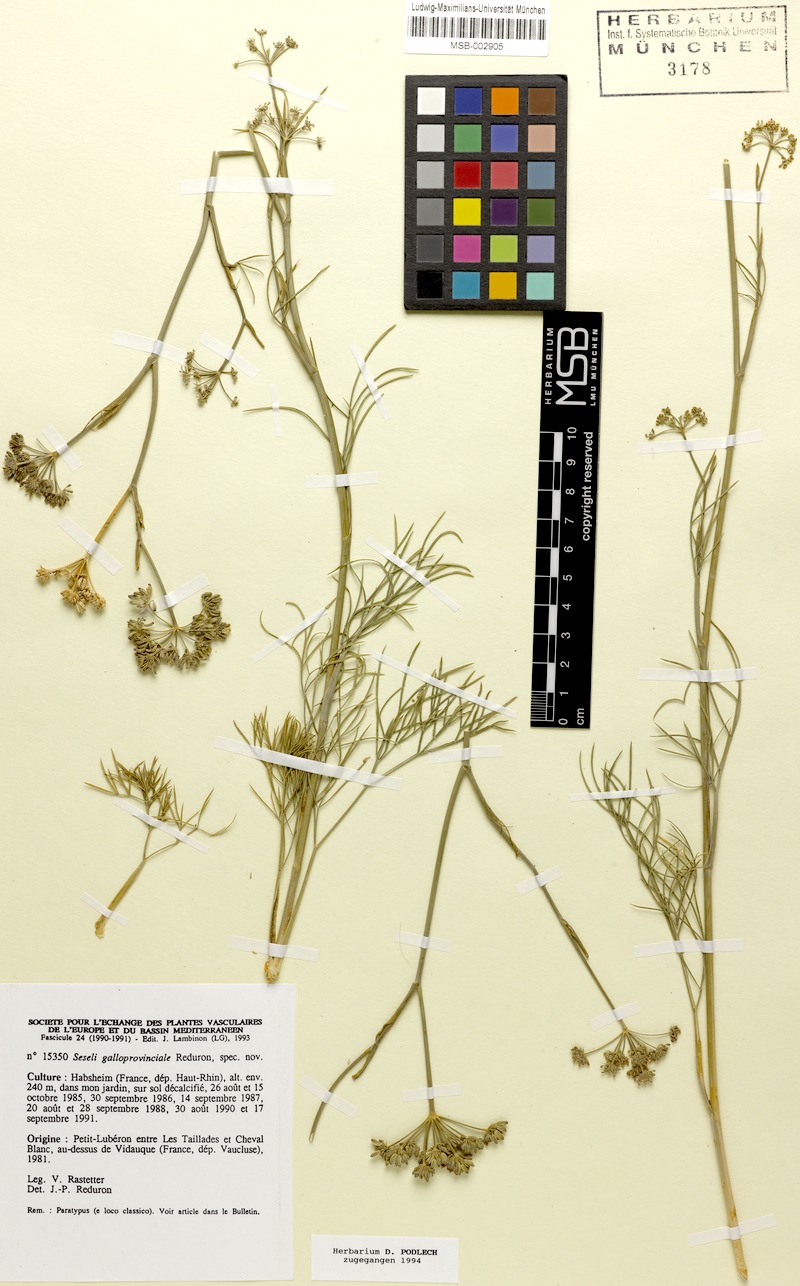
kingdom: Plantae
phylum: Tracheophyta
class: Magnoliopsida
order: Apiales
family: Apiaceae
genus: Seseli
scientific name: Seseli galloprovinciale
